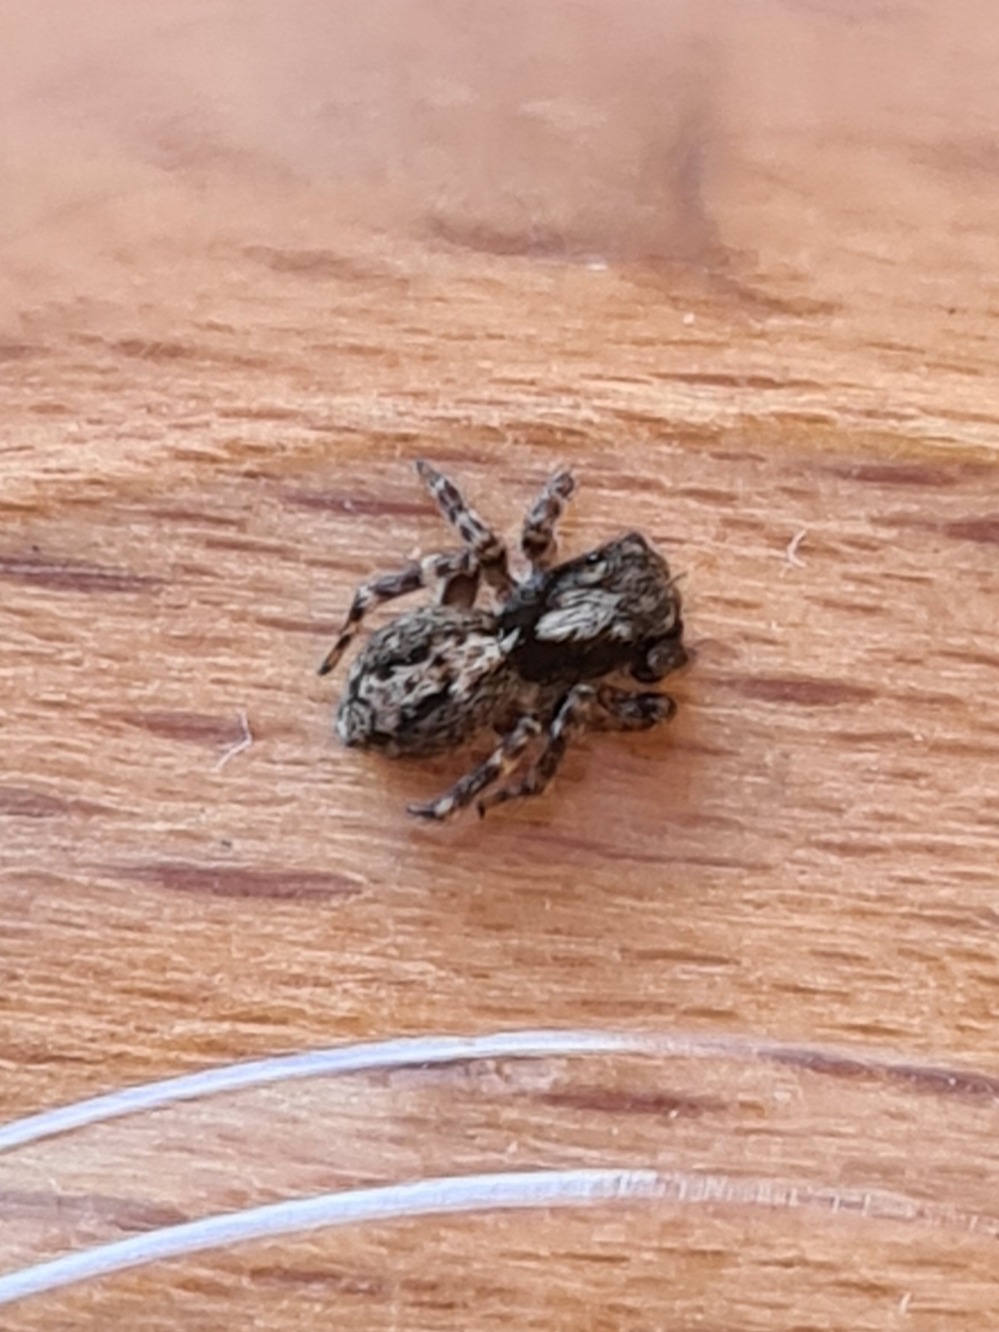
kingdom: Animalia
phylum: Arthropoda
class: Arachnida
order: Araneae
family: Salticidae
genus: Pseudeuophrys
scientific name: Pseudeuophrys lanigera
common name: Vinduesspringer
